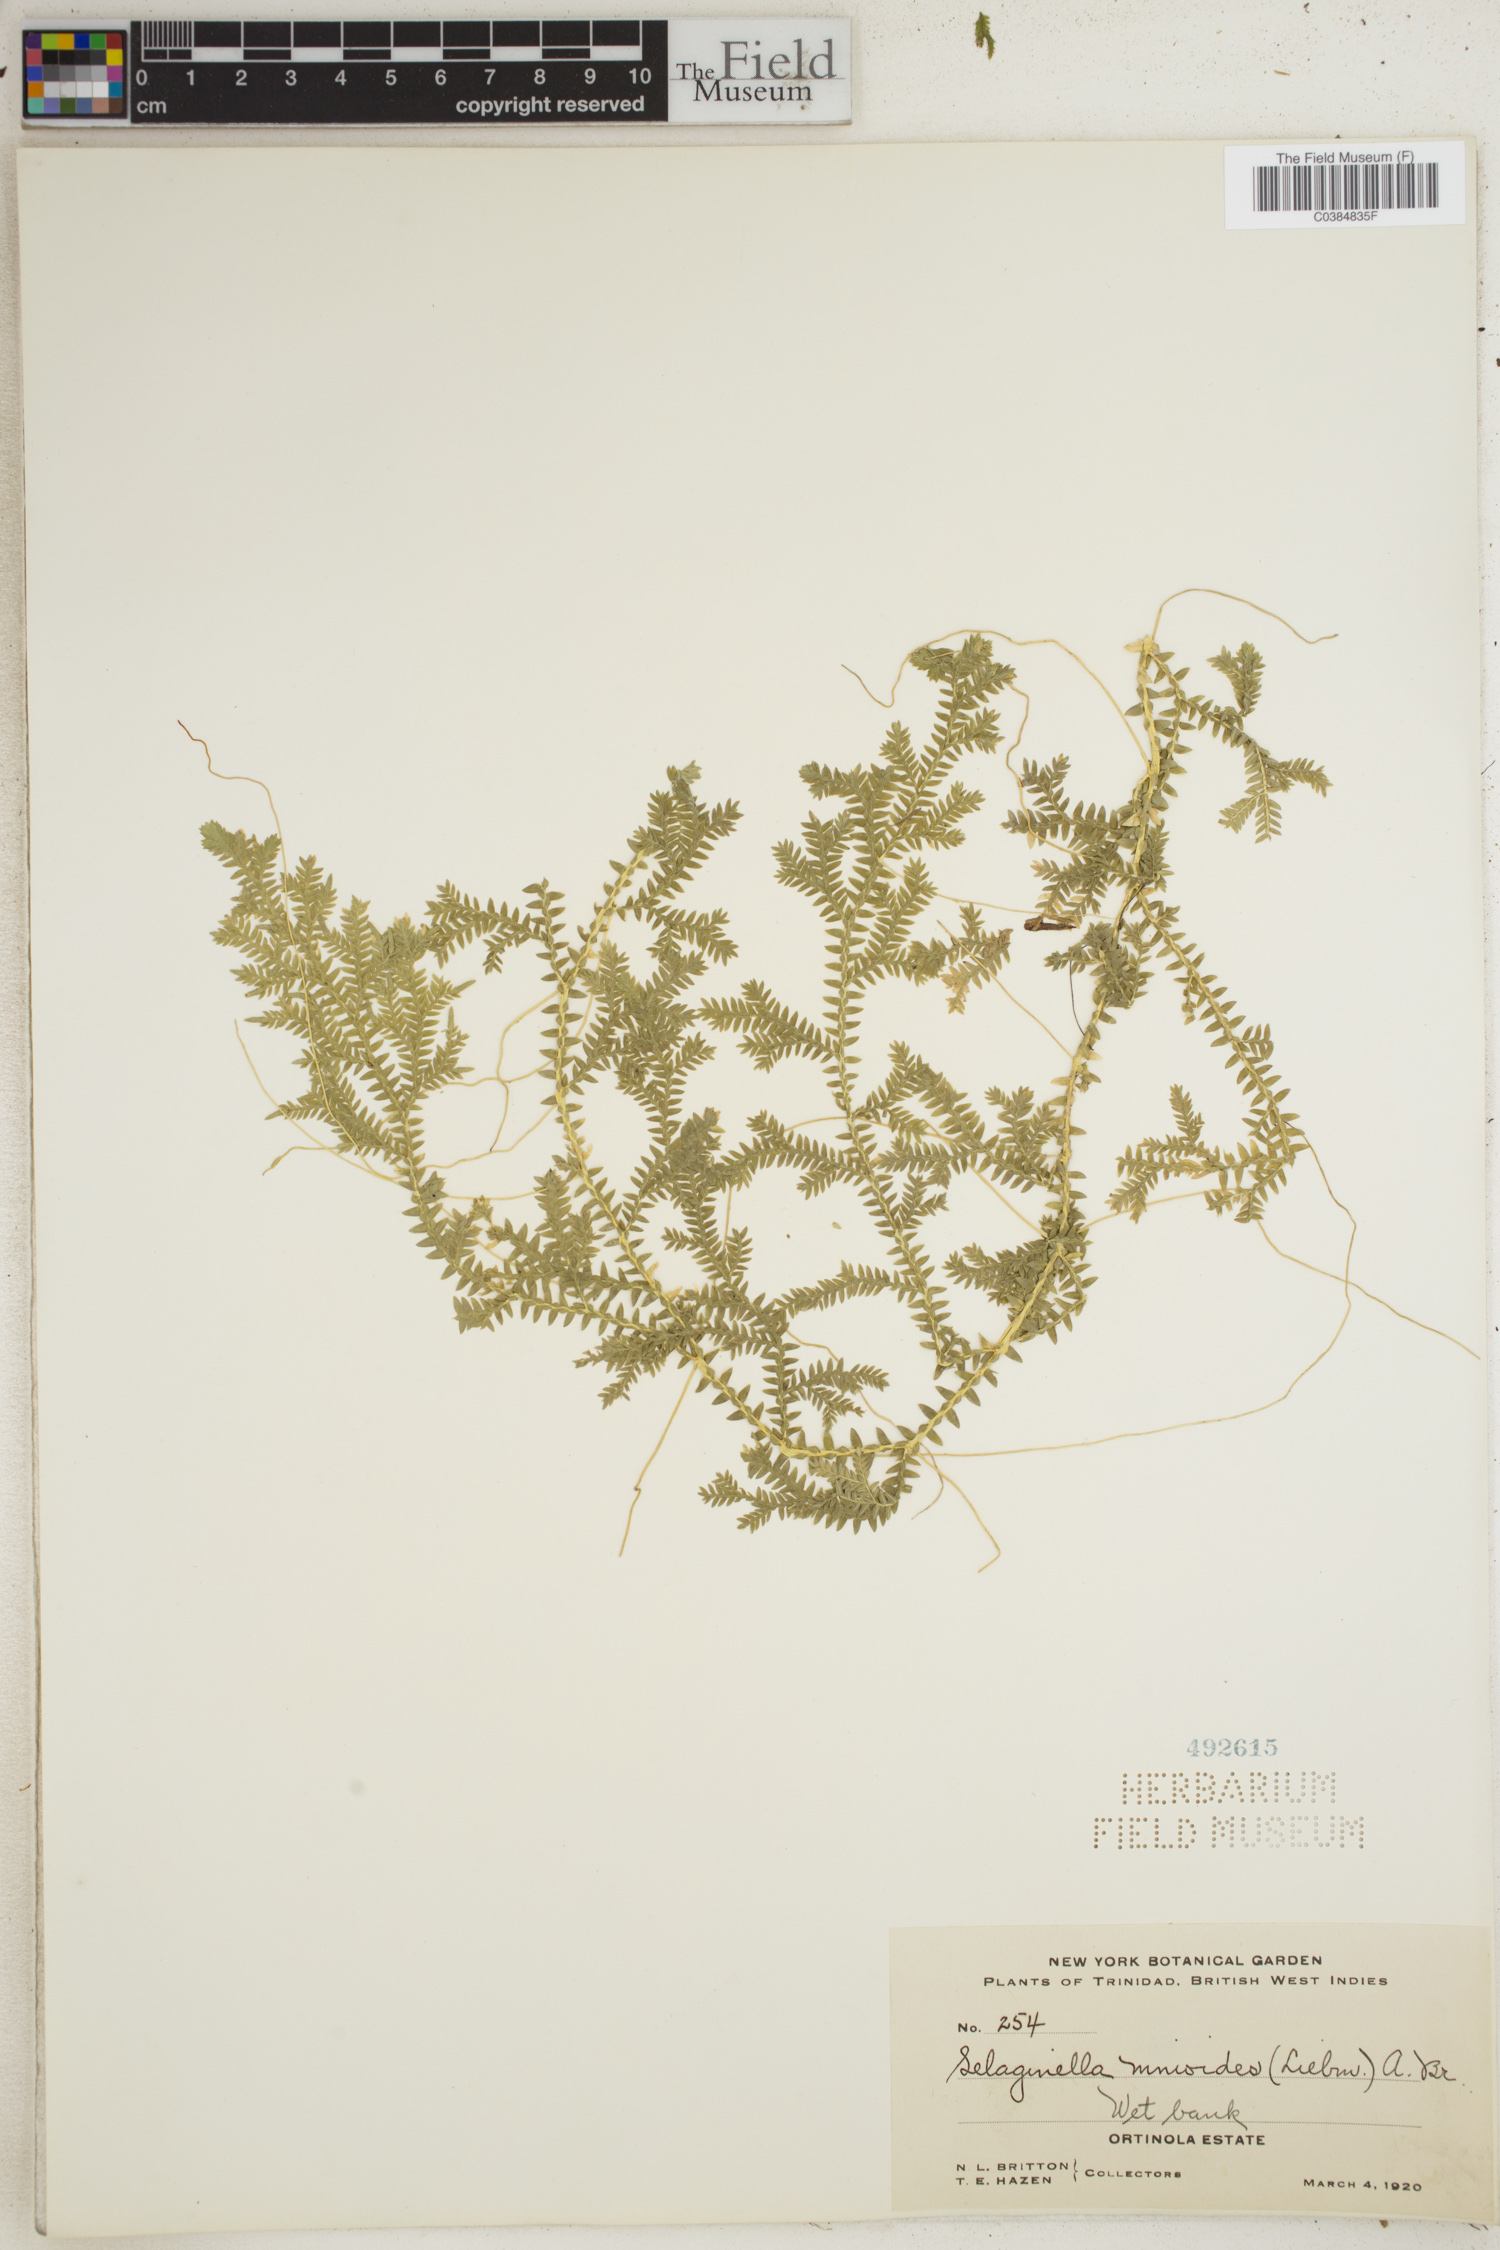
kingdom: Plantae
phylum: Tracheophyta
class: Lycopodiopsida
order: Selaginellales
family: Selaginellaceae
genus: Selaginella
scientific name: Selaginella diffusa
